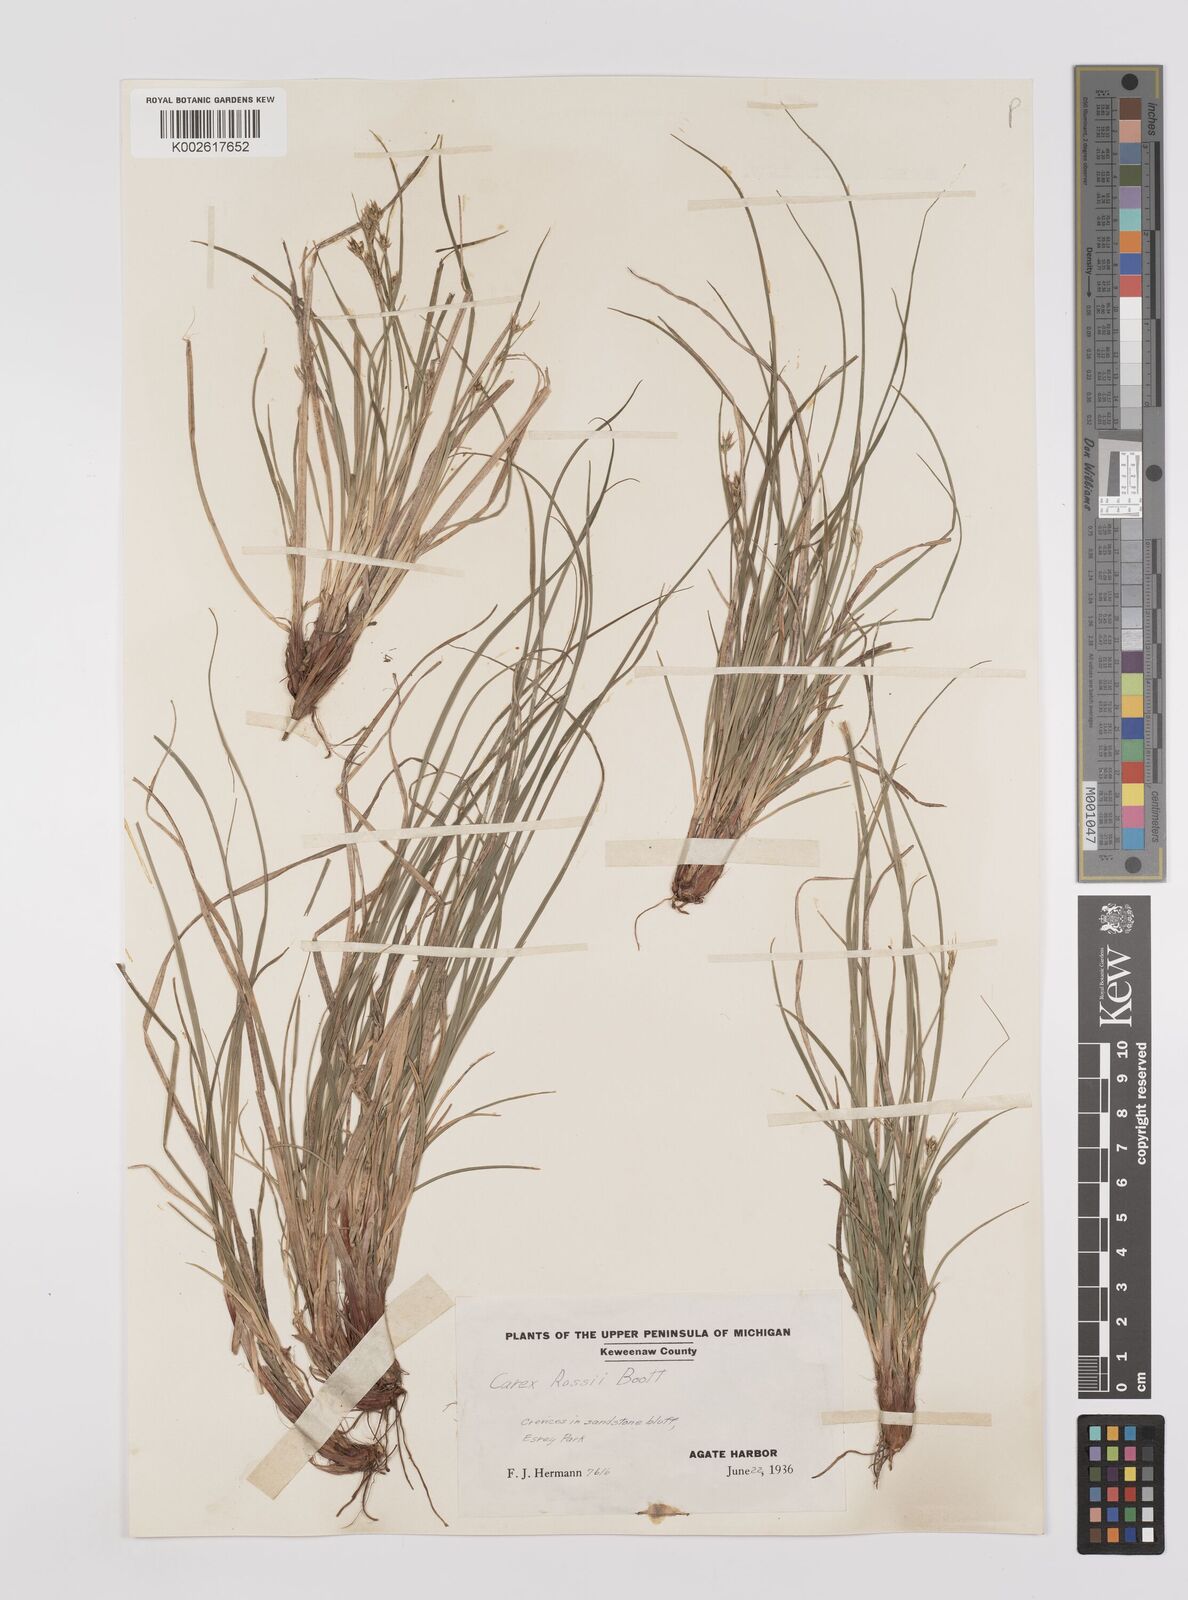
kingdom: Plantae
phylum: Tracheophyta
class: Liliopsida
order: Poales
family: Cyperaceae
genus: Carex
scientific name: Carex rossii
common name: Ross' sedge
